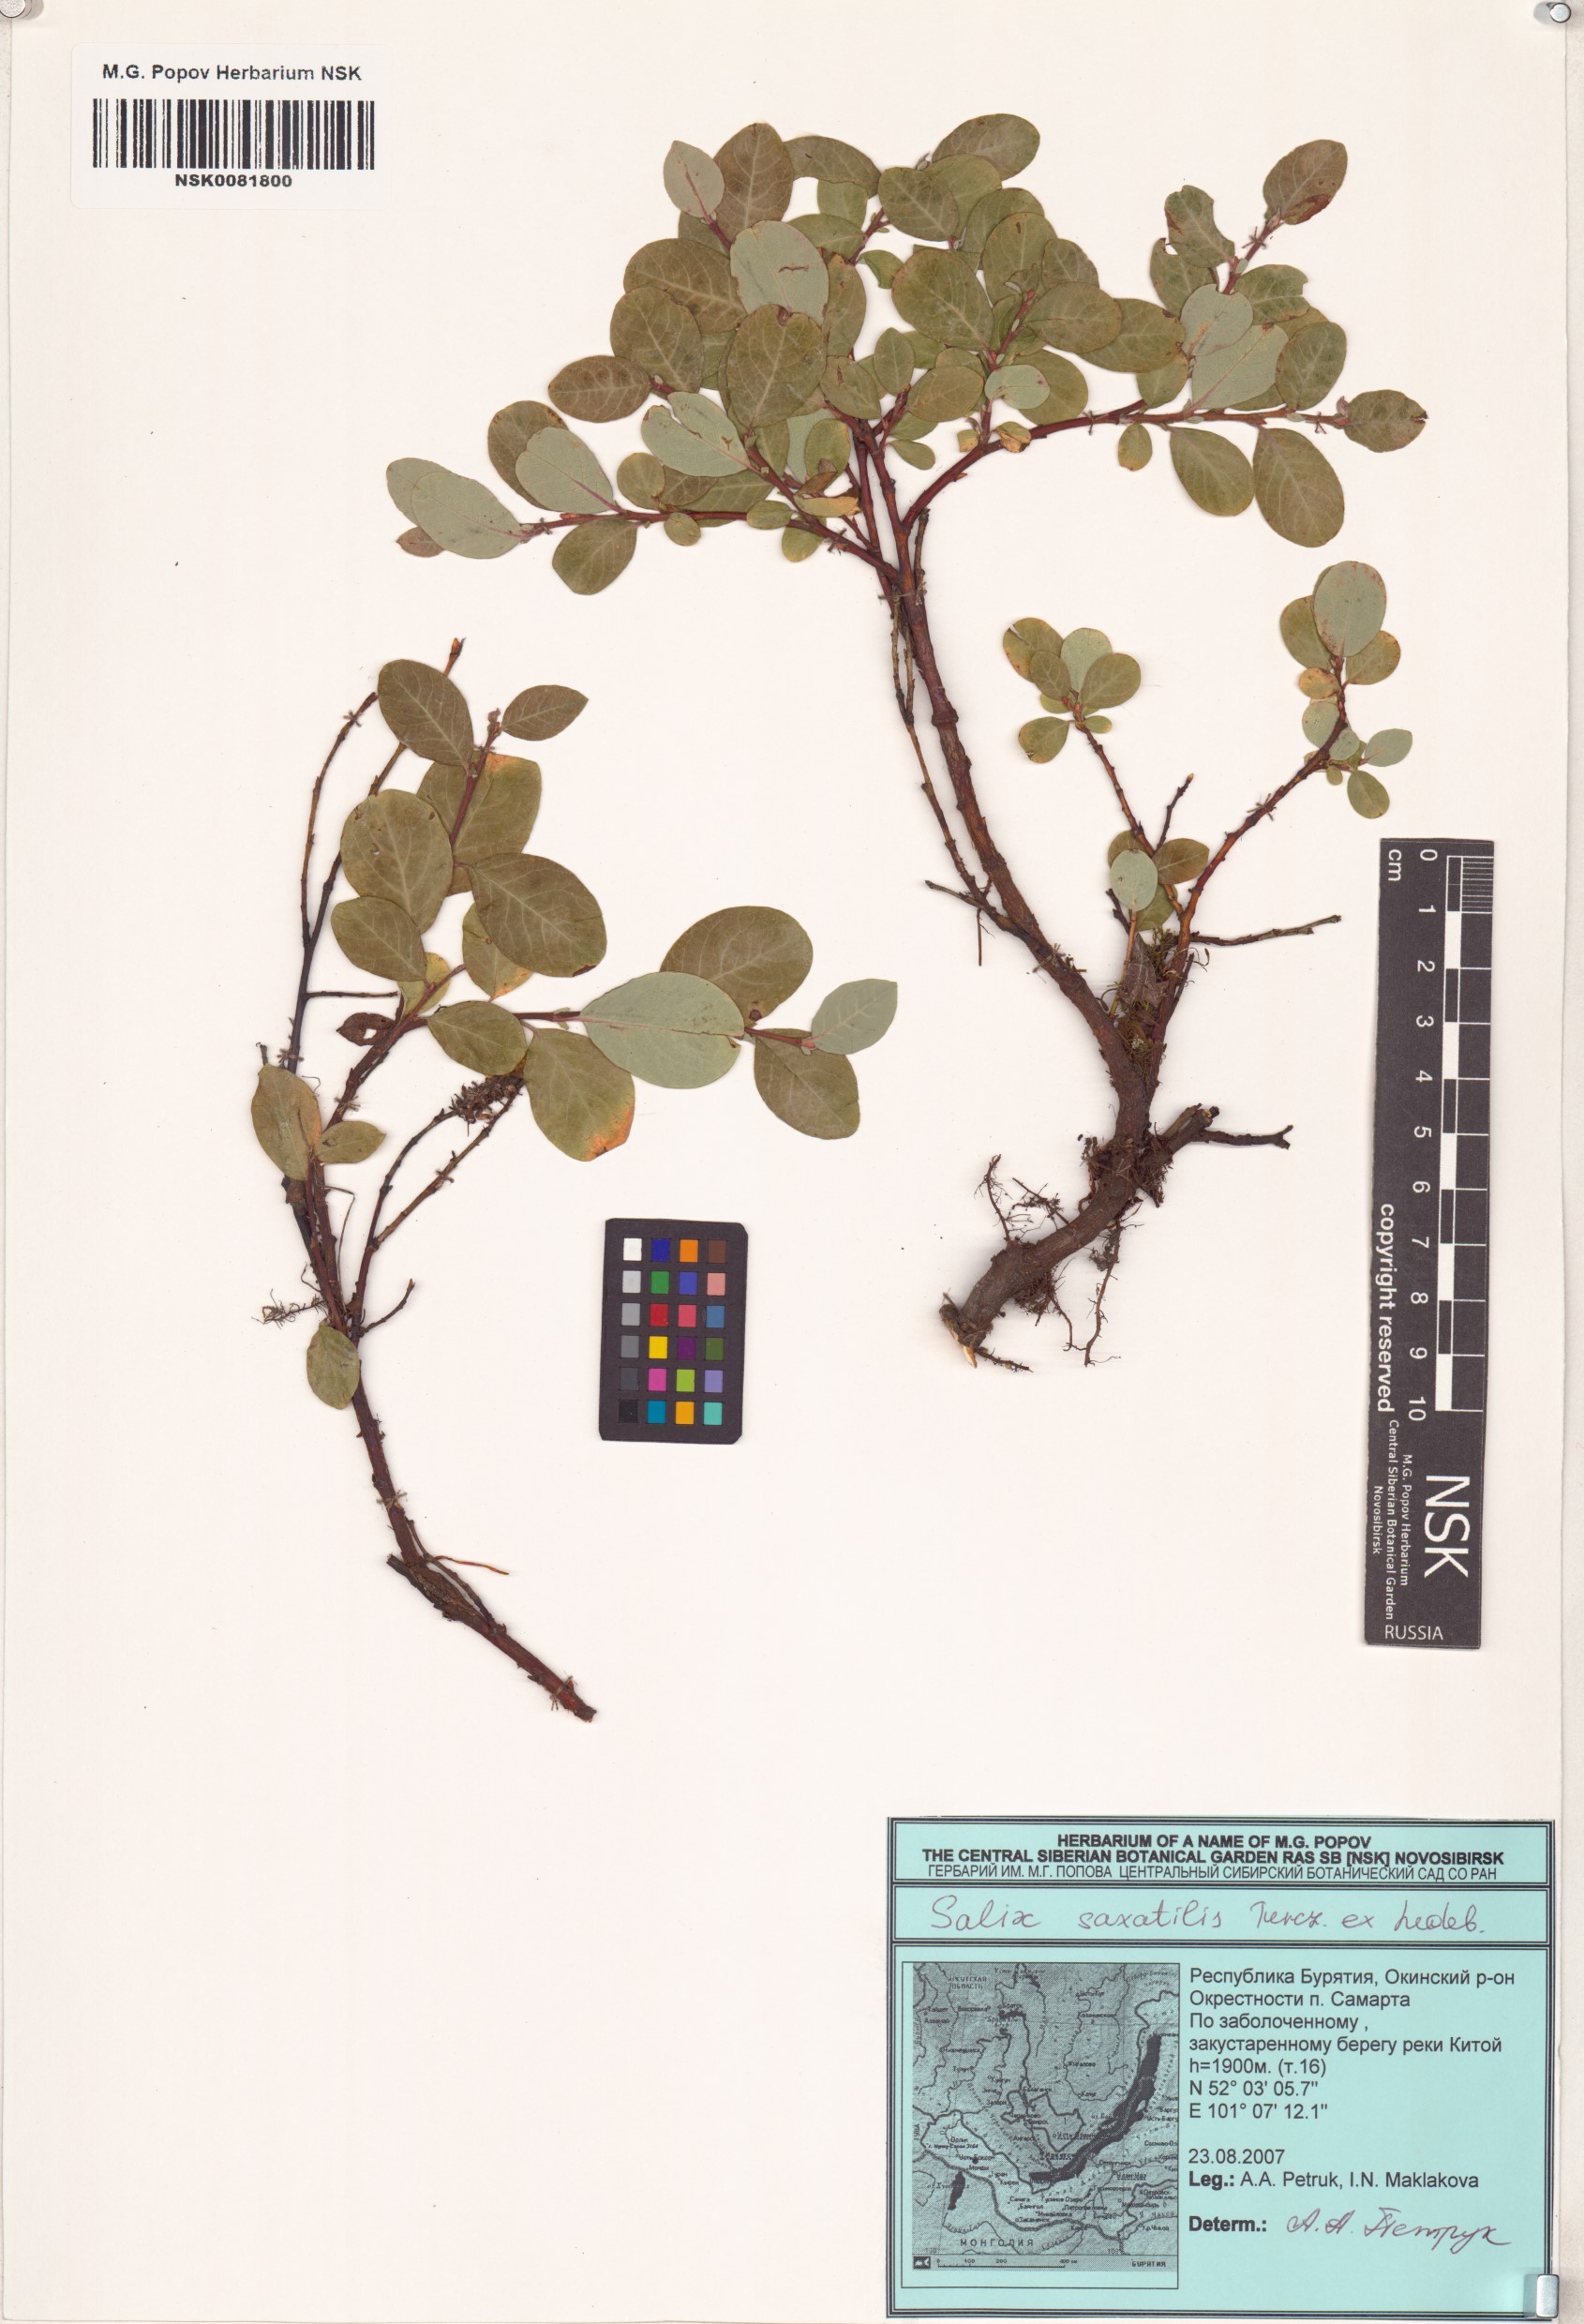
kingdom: Plantae
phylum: Tracheophyta
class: Magnoliopsida
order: Malpighiales
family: Salicaceae
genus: Salix
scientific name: Salix saxatilis
